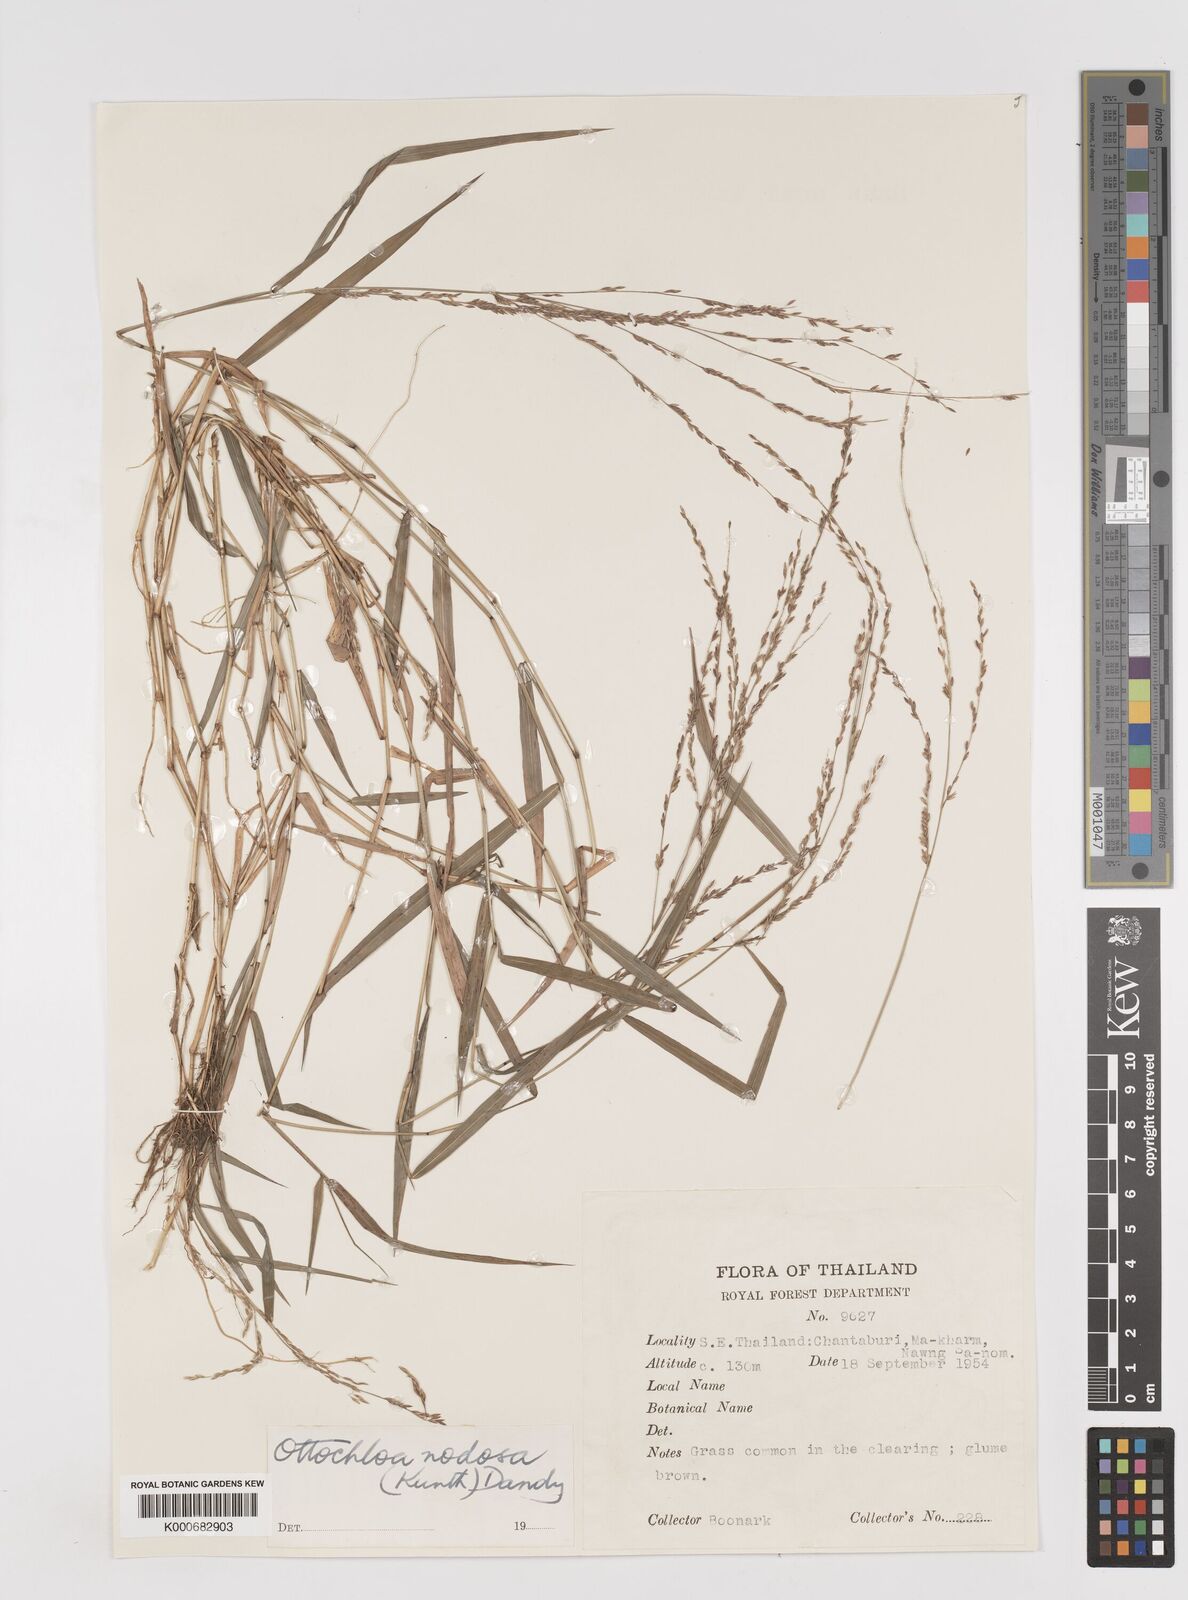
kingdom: Plantae
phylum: Tracheophyta
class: Liliopsida
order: Poales
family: Poaceae
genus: Ottochloa
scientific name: Ottochloa nodosa
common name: Slender-panic grass
